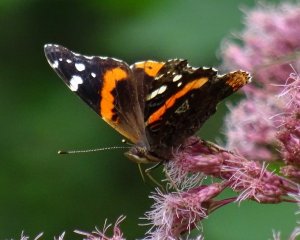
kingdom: Animalia
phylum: Arthropoda
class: Insecta
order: Lepidoptera
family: Nymphalidae
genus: Vanessa
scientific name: Vanessa atalanta
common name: Red Admiral
